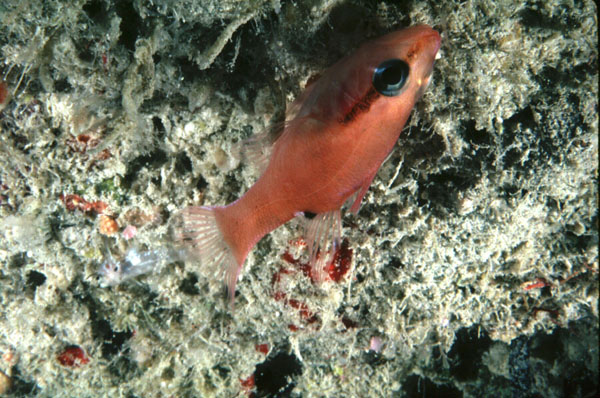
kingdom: Animalia
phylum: Chordata
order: Perciformes
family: Apogonidae
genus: Zapogon
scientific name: Zapogon evermanni
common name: Cave cardinalfish
